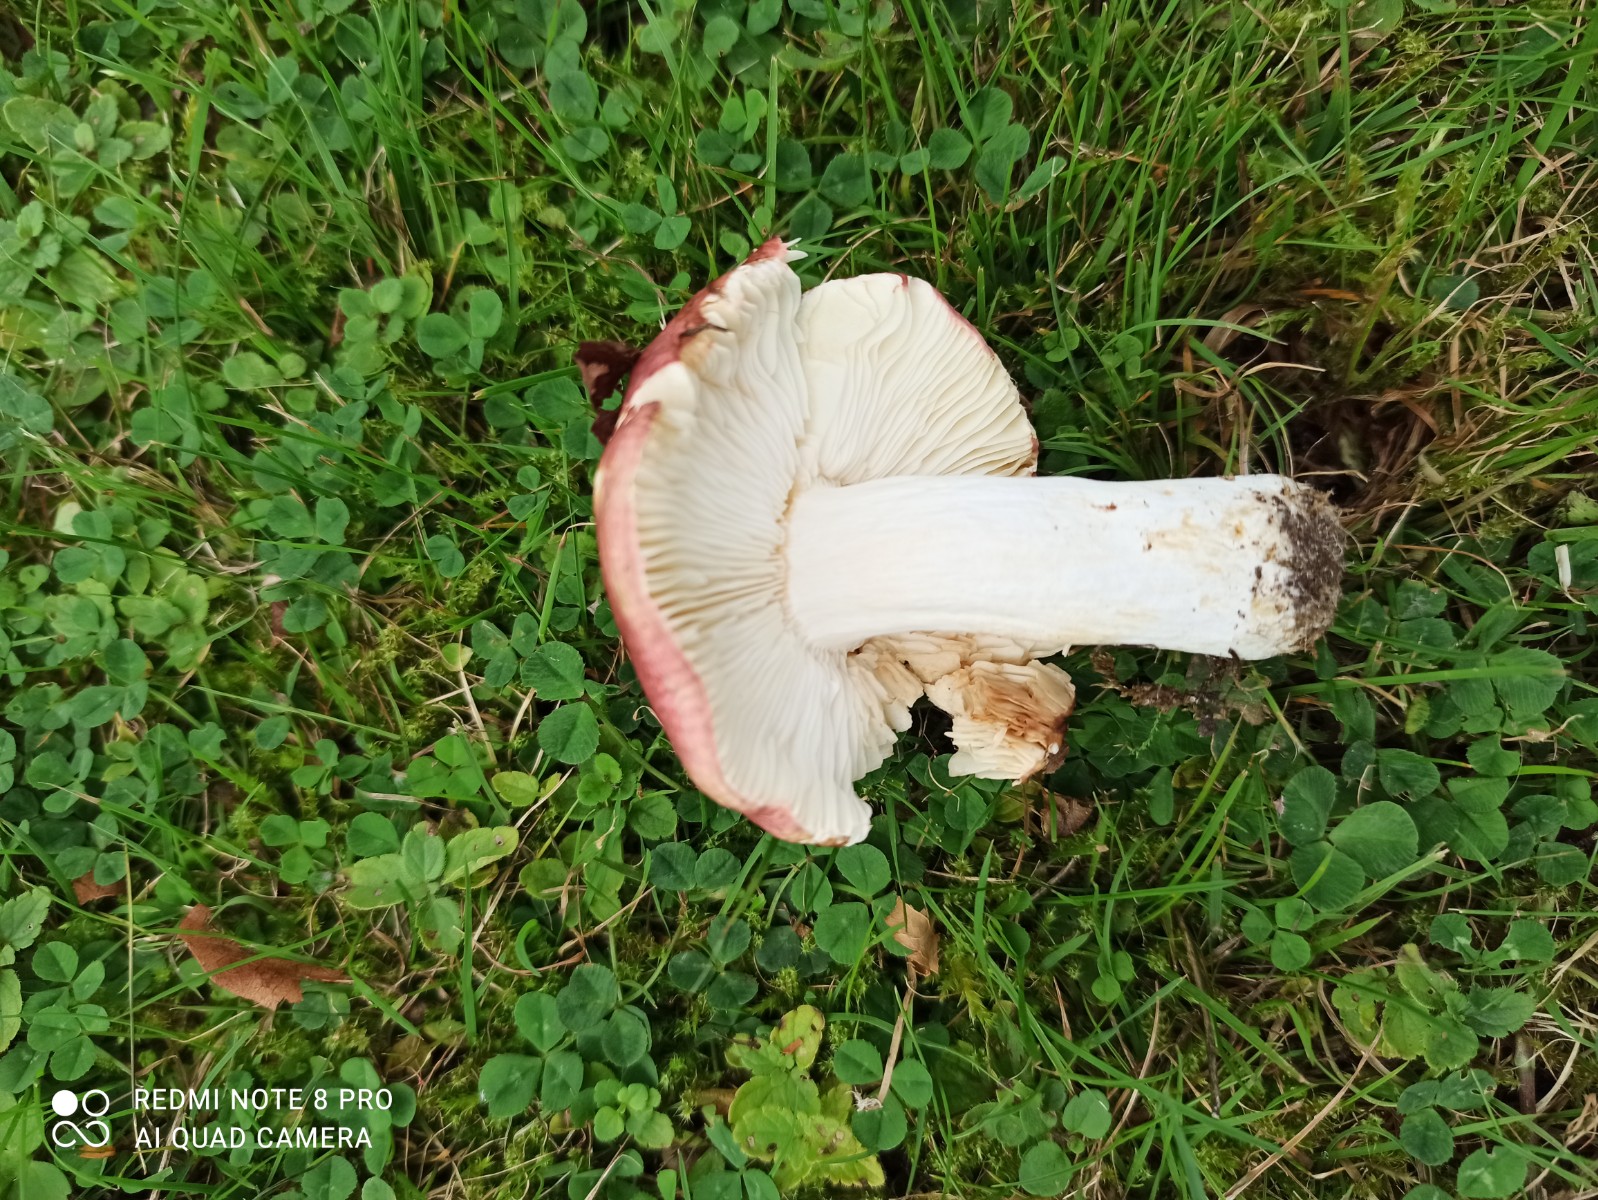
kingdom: Fungi
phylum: Basidiomycota
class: Agaricomycetes
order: Russulales
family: Russulaceae
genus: Russula
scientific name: Russula
